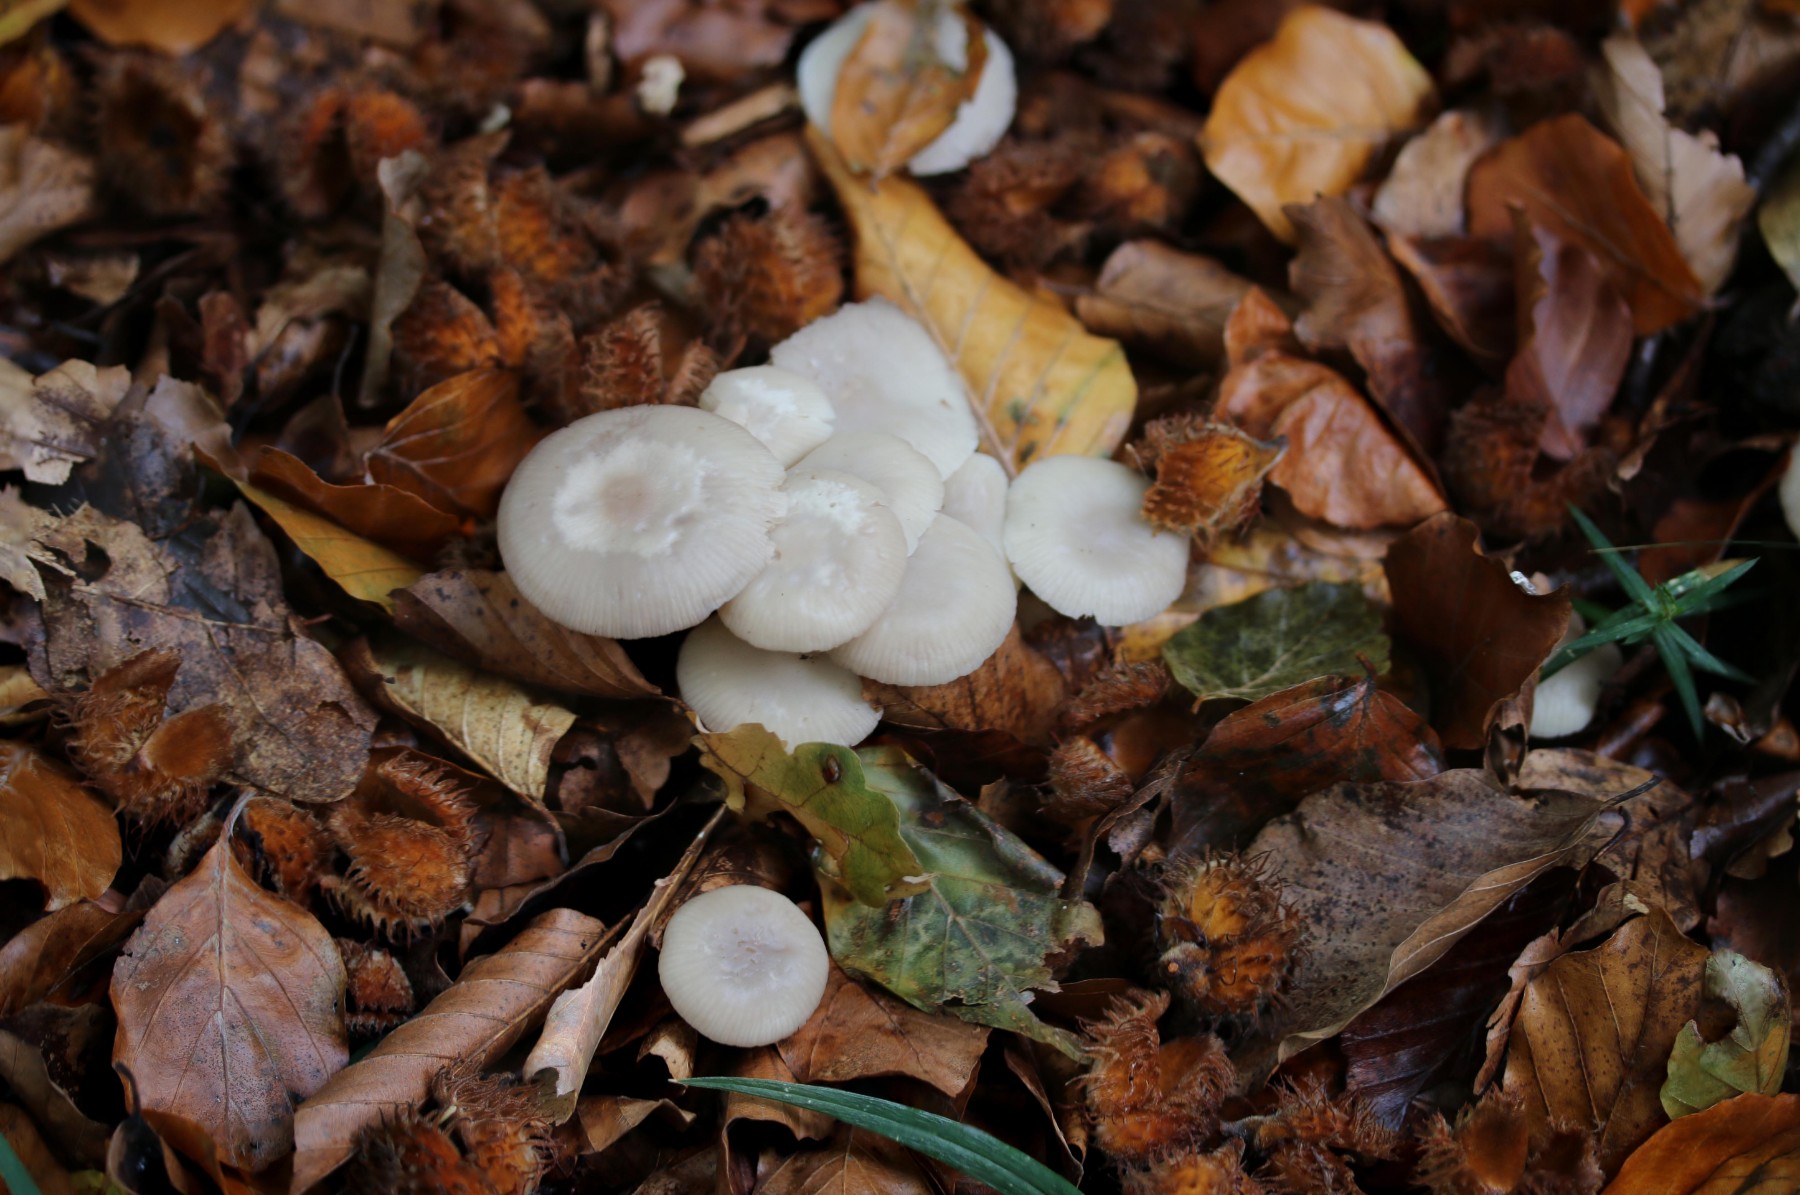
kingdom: Fungi
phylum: Basidiomycota
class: Agaricomycetes
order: Agaricales
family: Marasmiaceae
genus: Marasmius
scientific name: Marasmius wynneae
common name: hvælvet bruskhat
